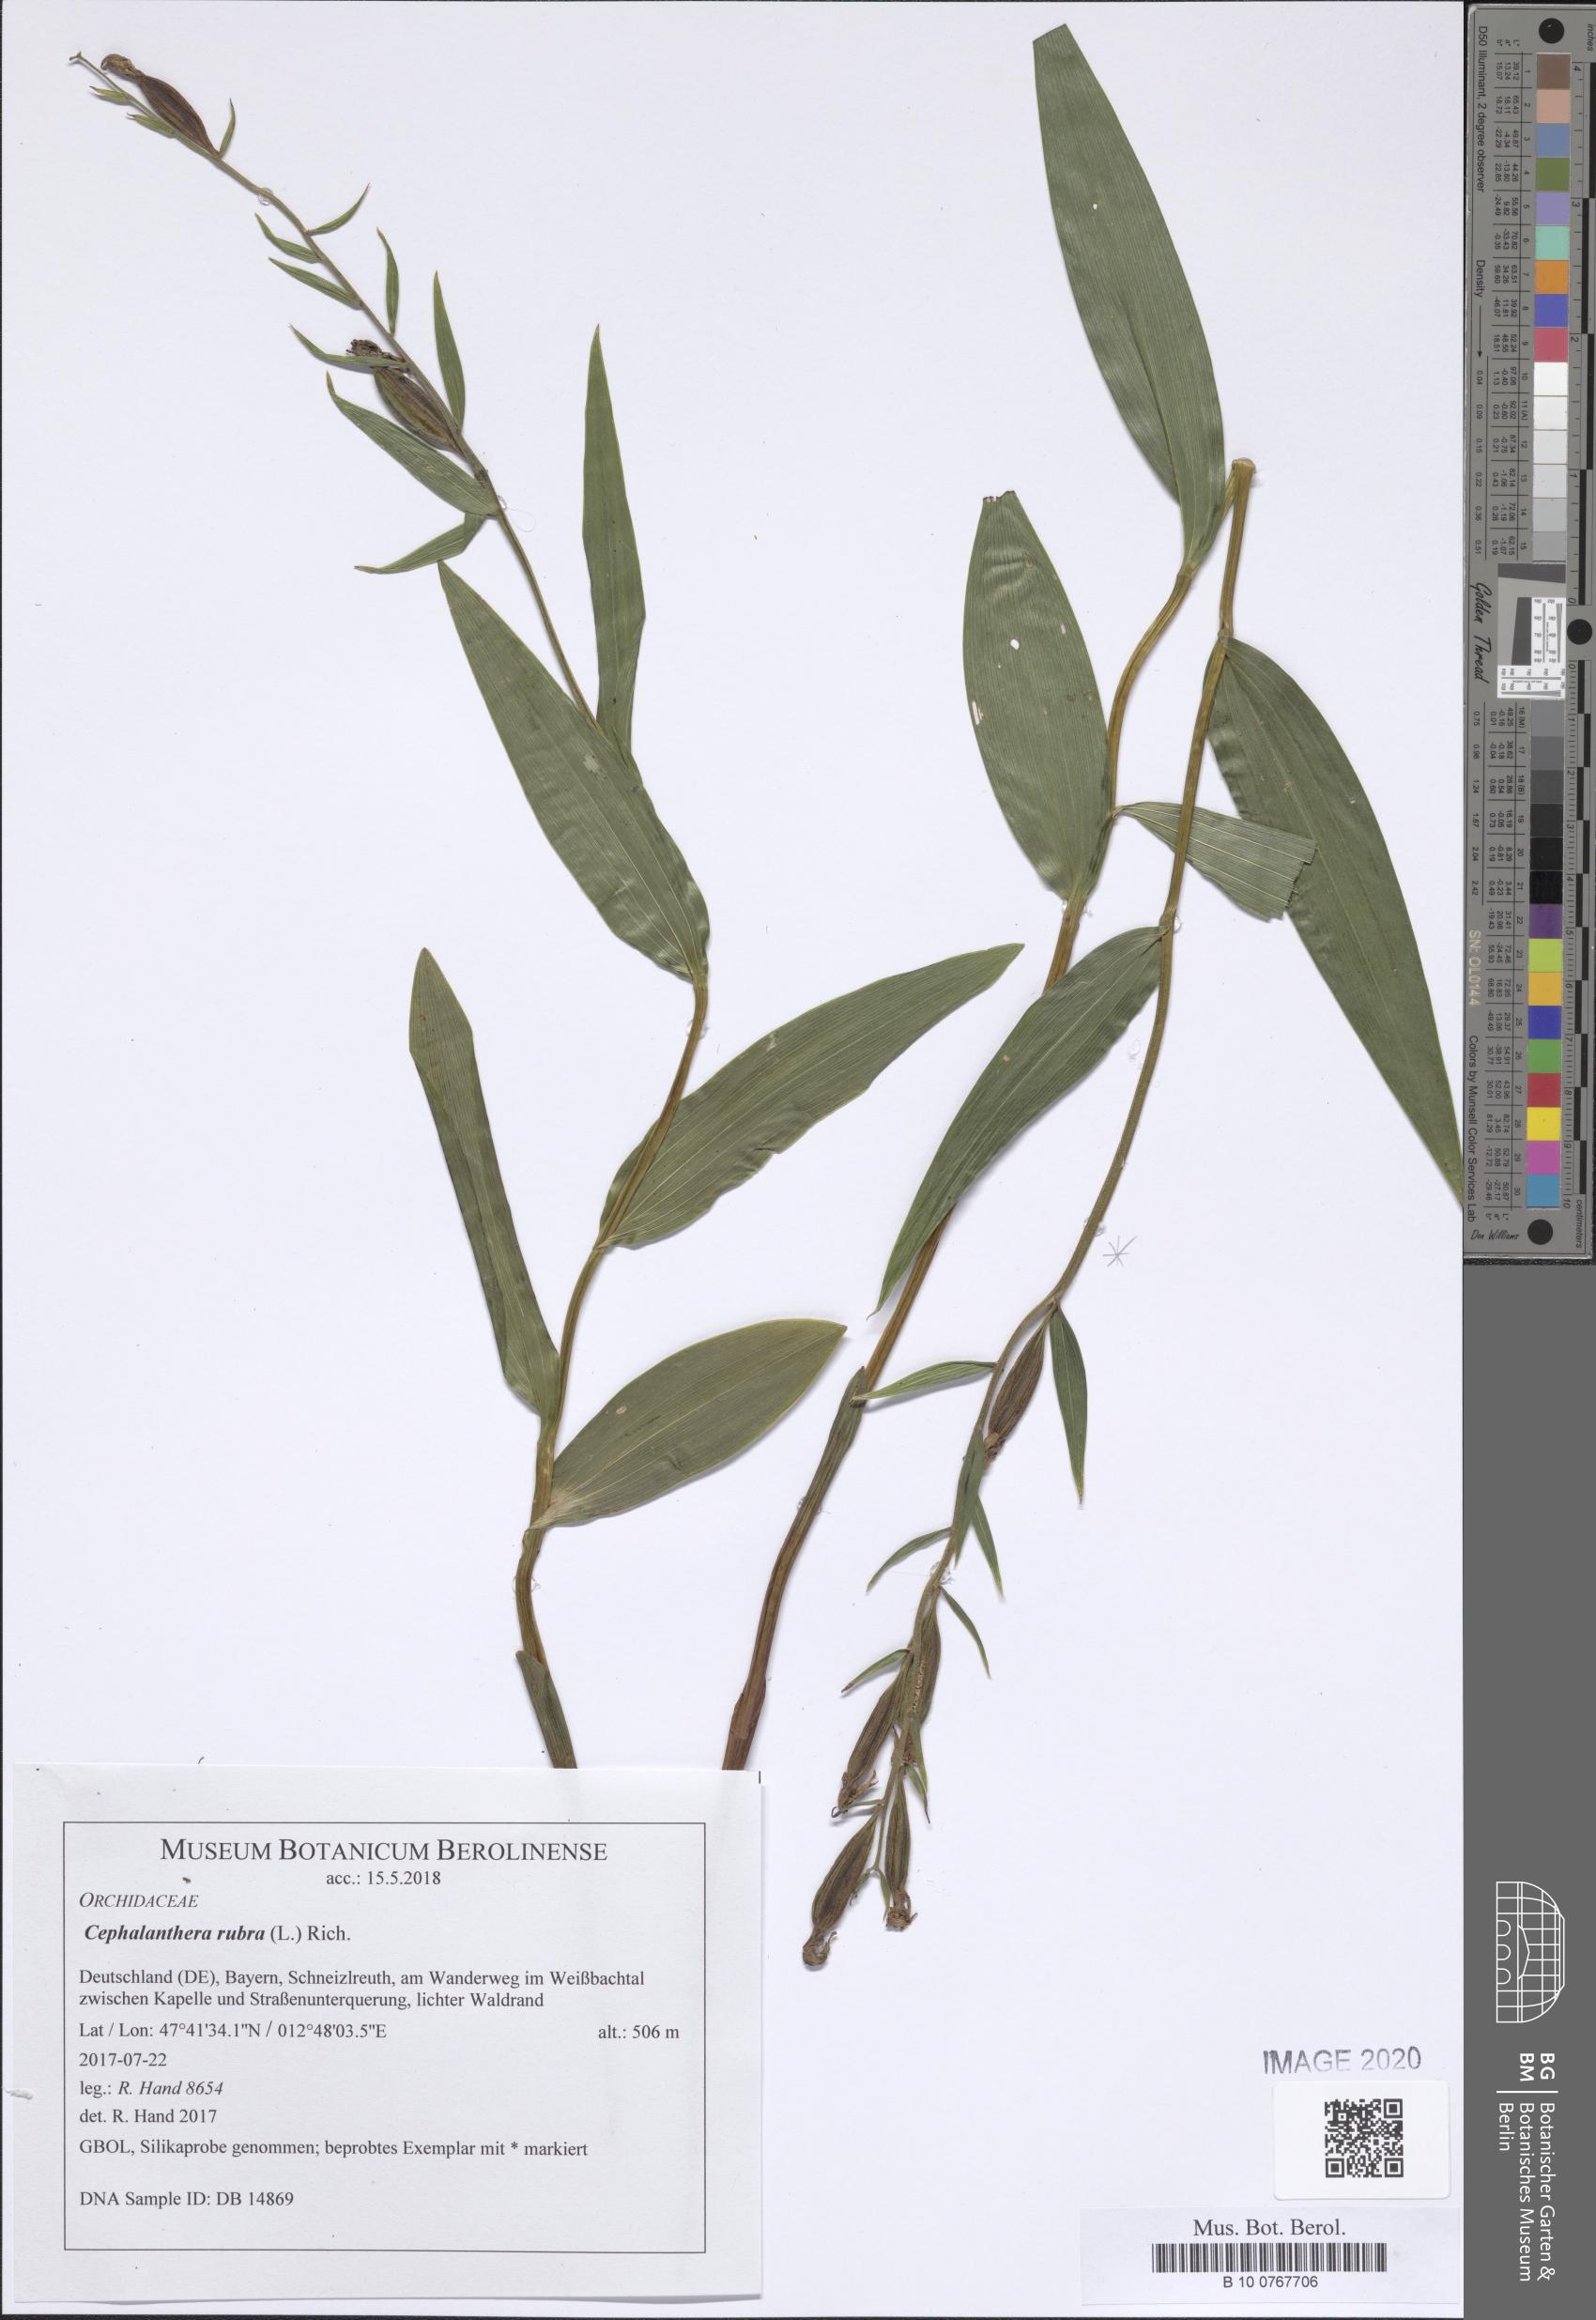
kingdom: Plantae
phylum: Tracheophyta
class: Liliopsida
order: Asparagales
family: Orchidaceae
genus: Cephalanthera
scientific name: Cephalanthera rubra
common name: Red helleborine
